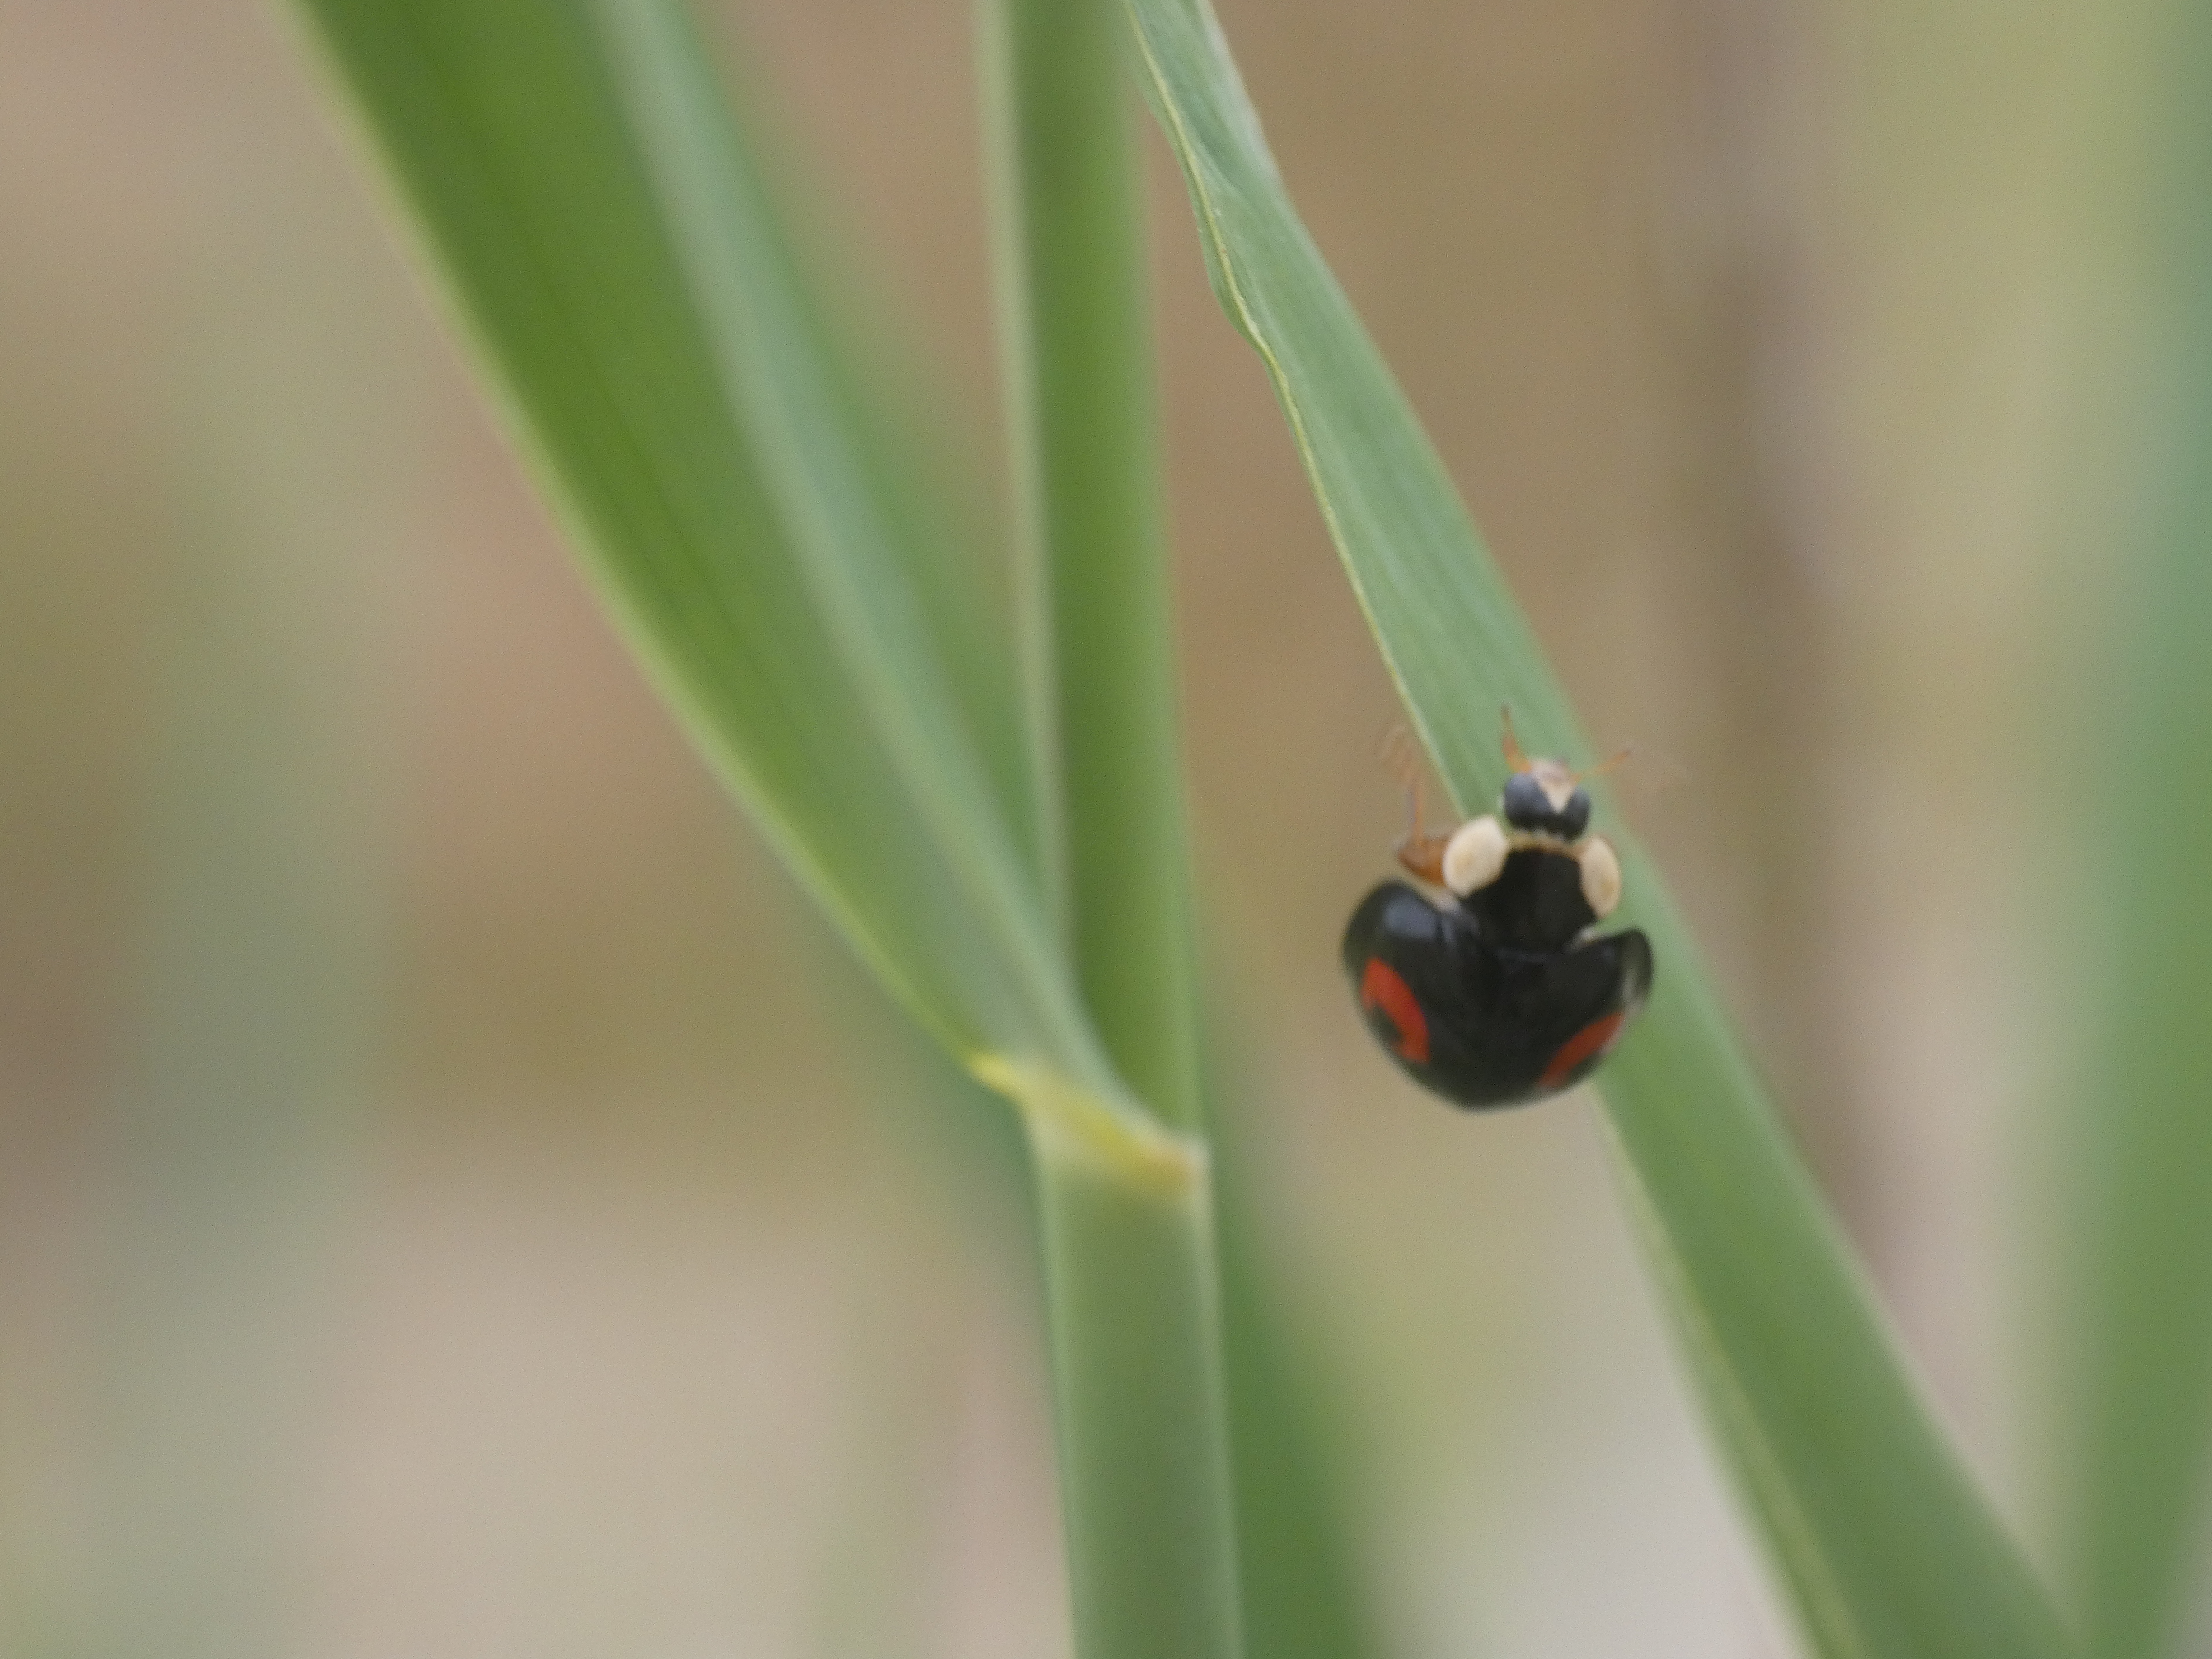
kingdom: Animalia
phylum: Arthropoda
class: Insecta
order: Coleoptera
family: Coccinellidae
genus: Harmonia
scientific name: Harmonia axyridis
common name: Harlekinmariehøne
